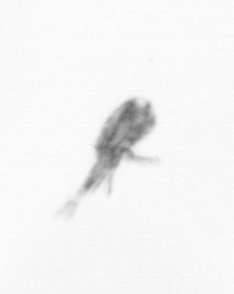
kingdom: Animalia
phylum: Arthropoda
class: Copepoda
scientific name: Copepoda
